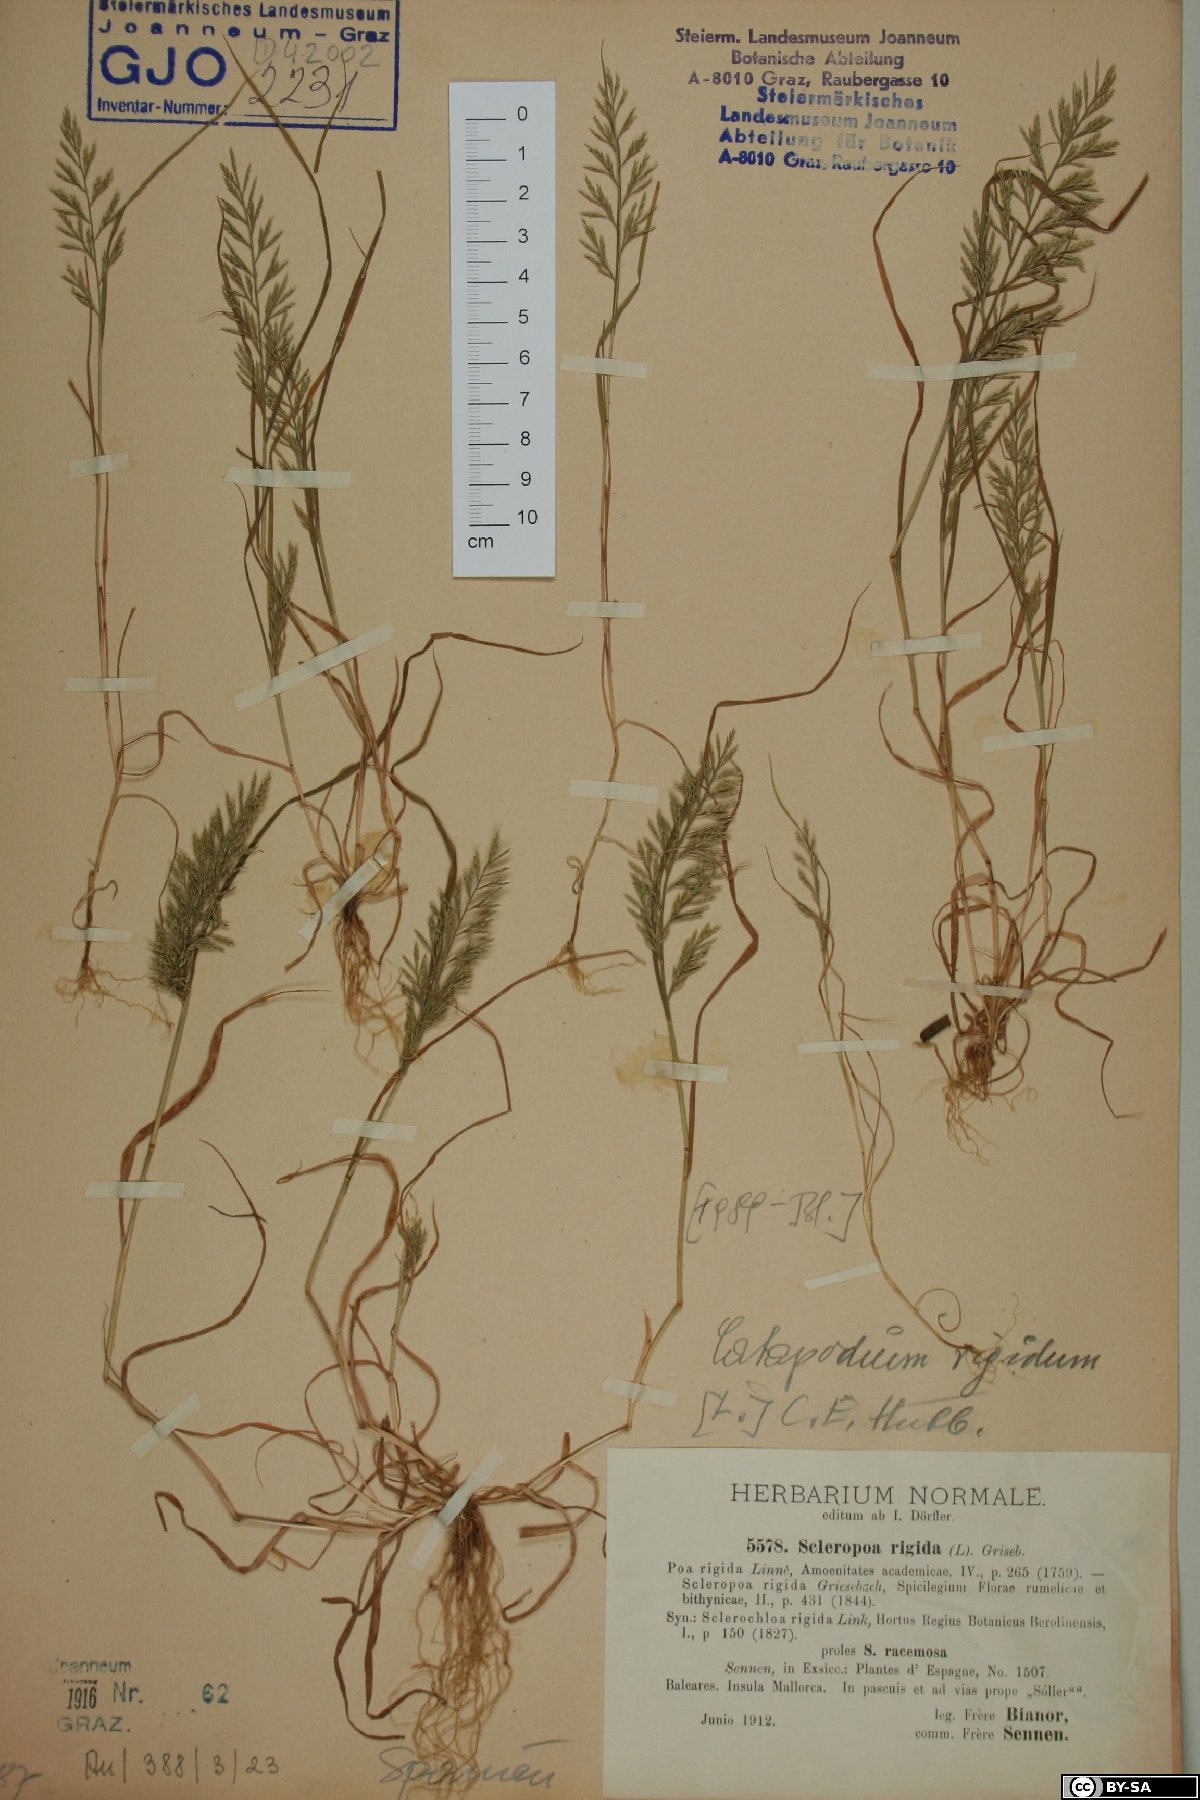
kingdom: Plantae
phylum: Tracheophyta
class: Liliopsida
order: Poales
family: Poaceae
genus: Catapodium
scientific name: Catapodium rigidum
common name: Fern-grass
